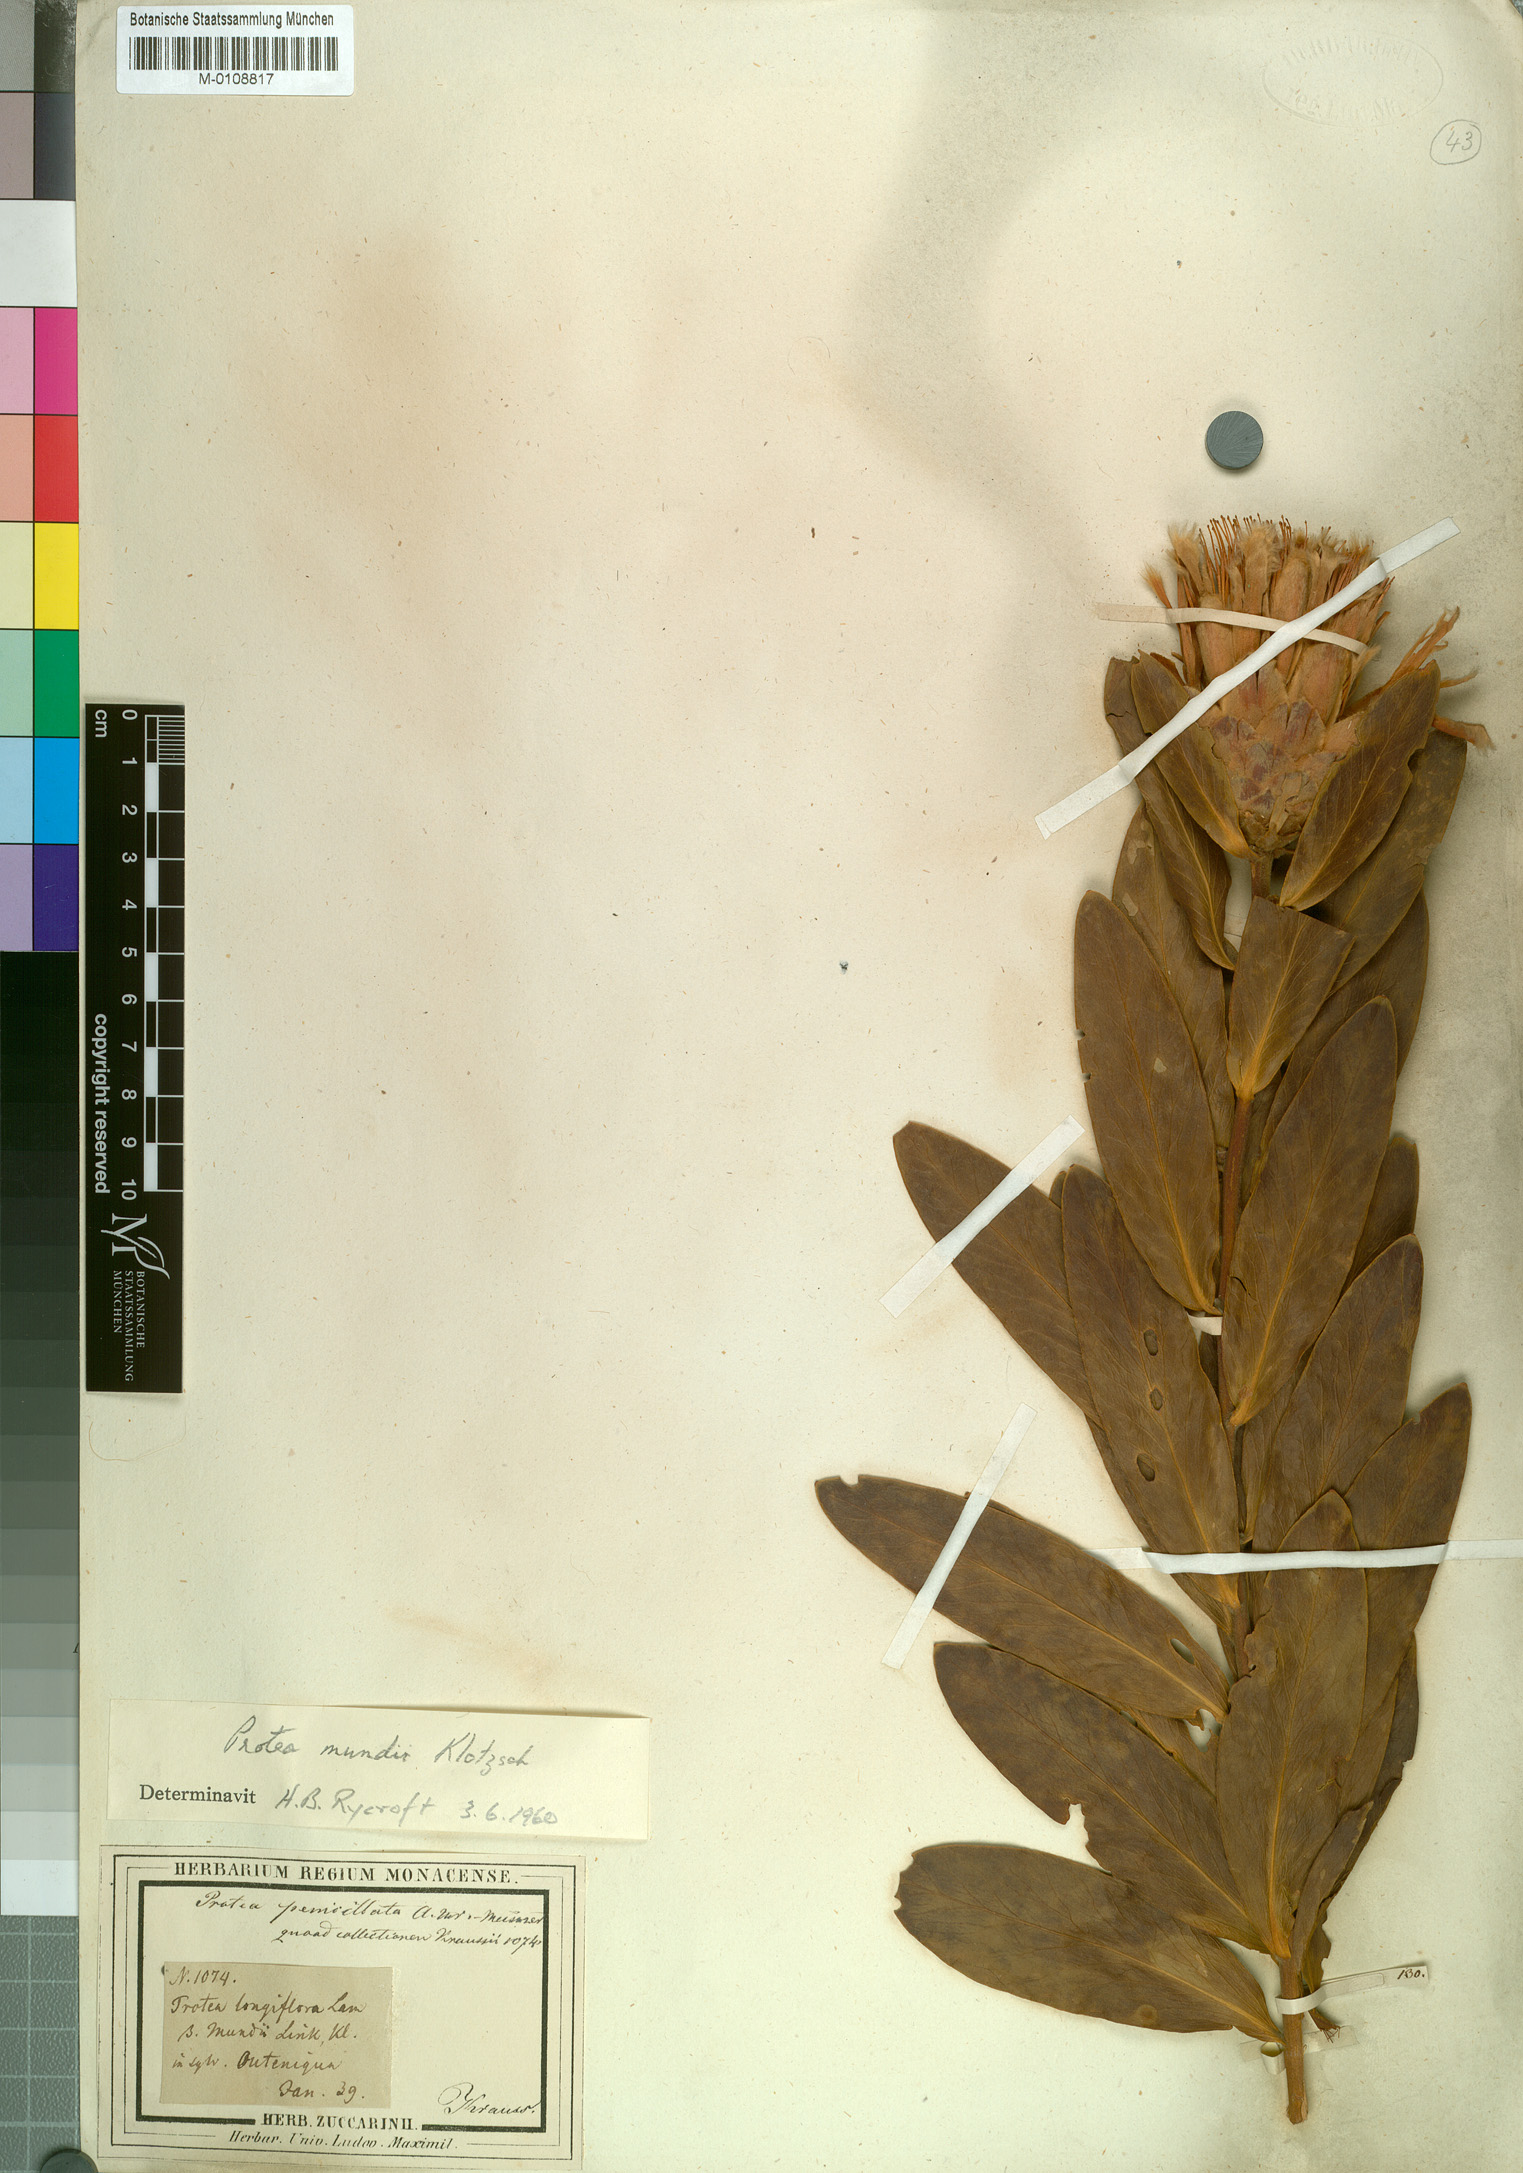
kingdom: Plantae
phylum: Tracheophyta
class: Magnoliopsida
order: Proteales
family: Proteaceae
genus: Protea
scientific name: Protea mundii
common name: Forest sugarbush
